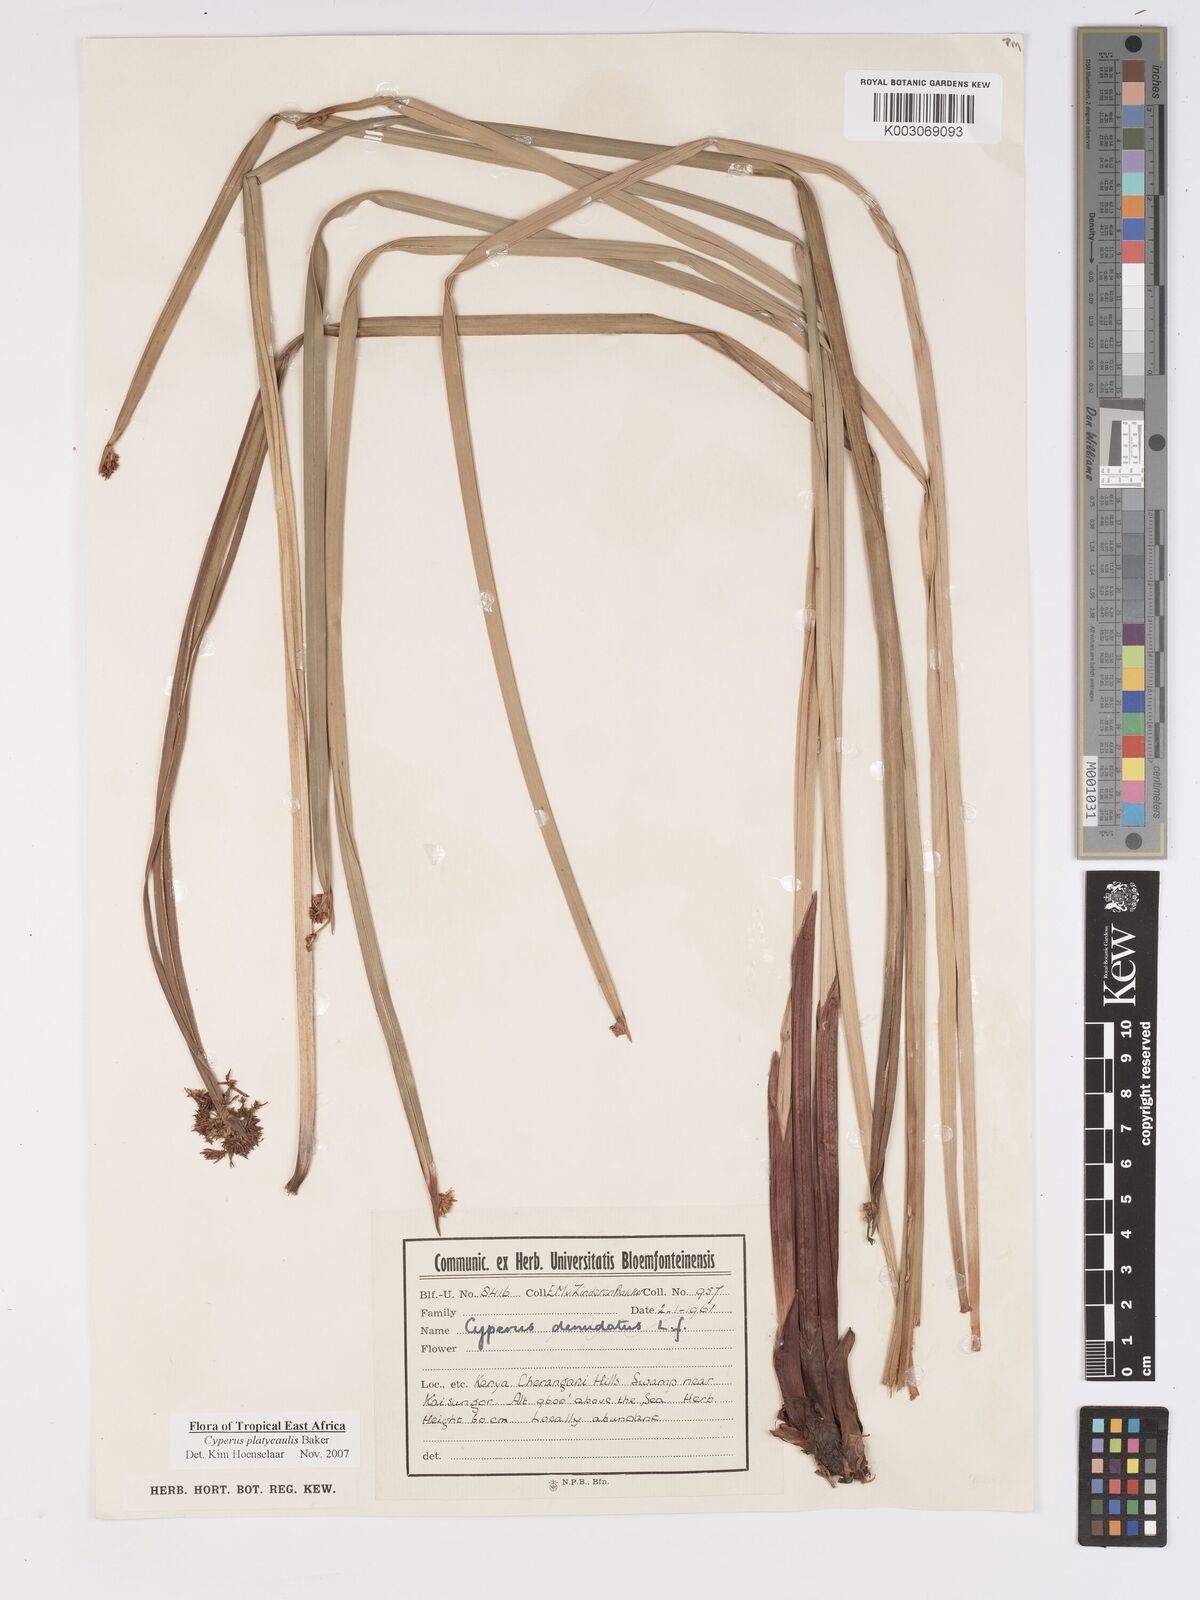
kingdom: Plantae
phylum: Tracheophyta
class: Liliopsida
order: Poales
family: Cyperaceae
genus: Cyperus
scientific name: Cyperus platycaulis
